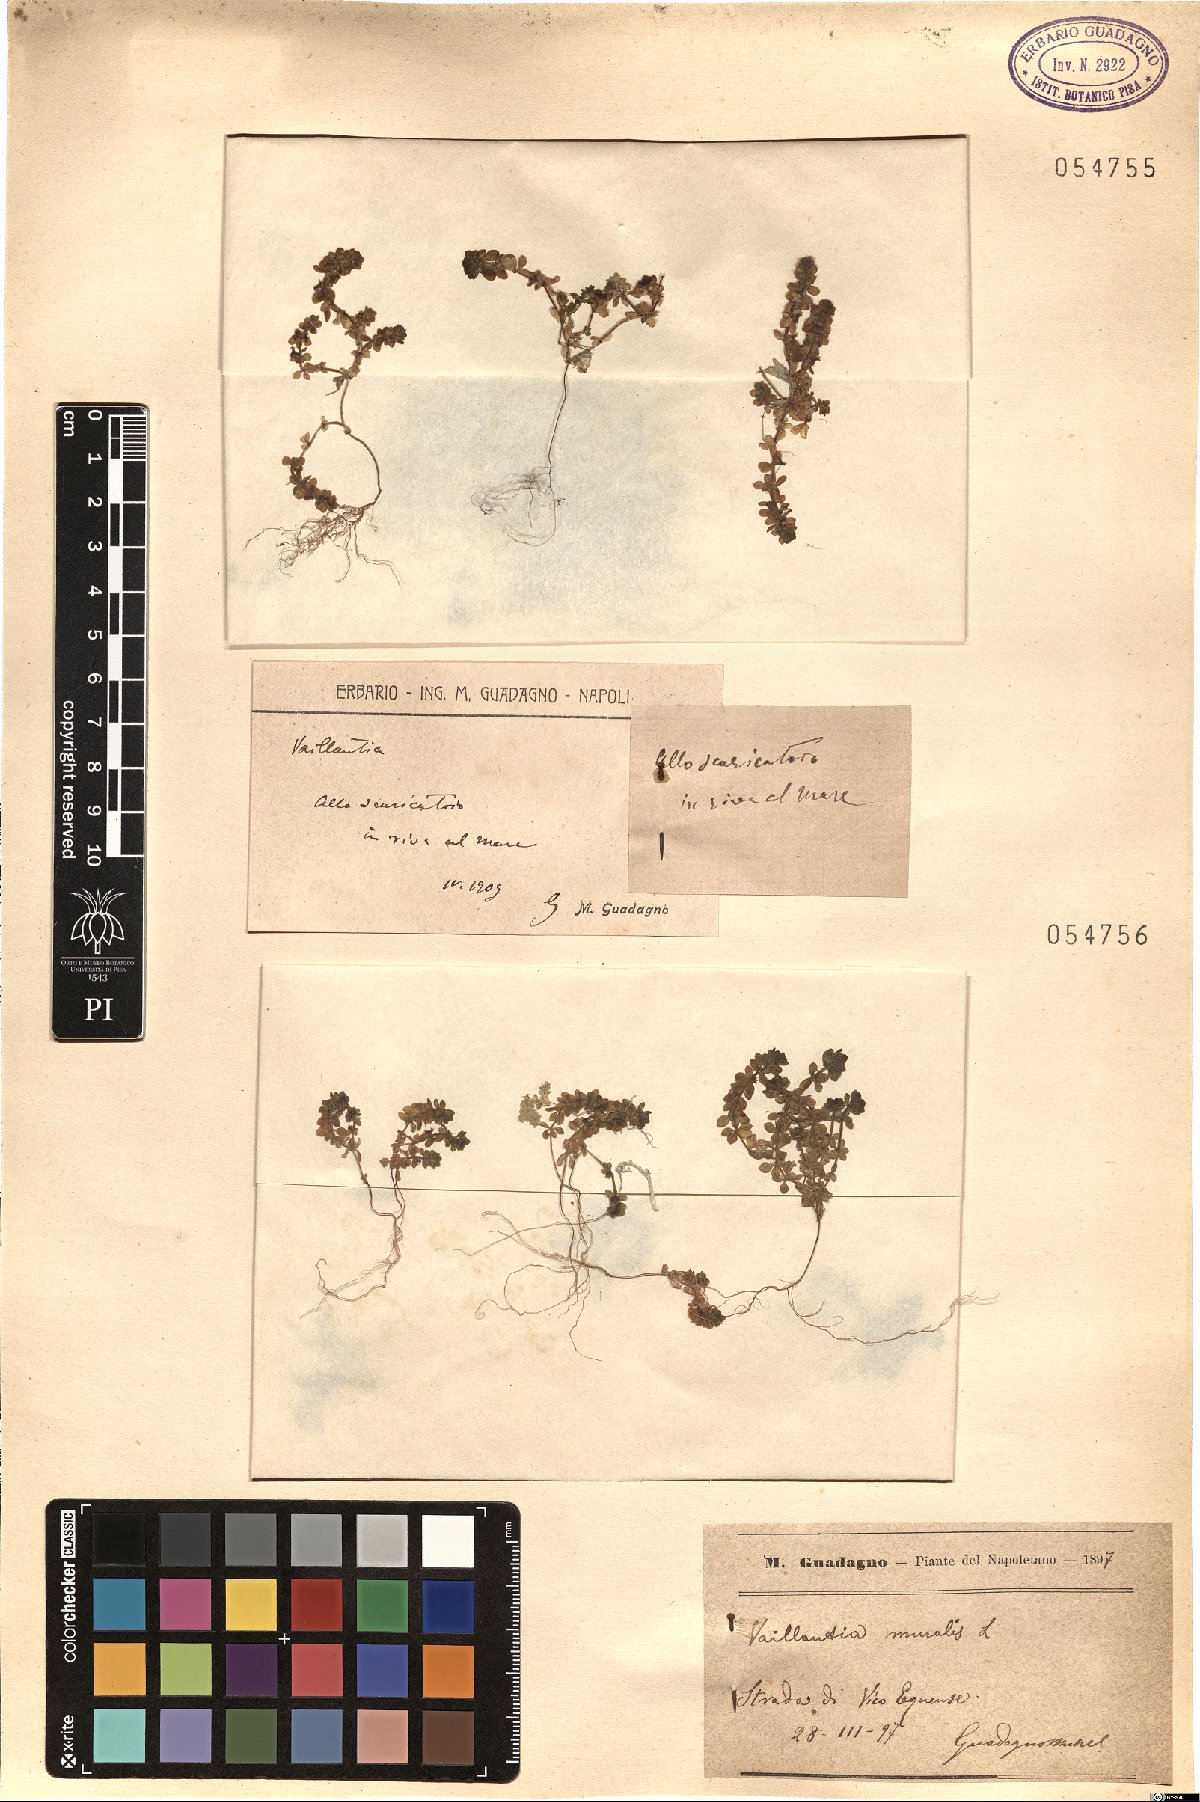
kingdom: Animalia
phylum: Arthropoda
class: Insecta
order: Diptera
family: Psychodidae
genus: Vaillantia
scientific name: Vaillantia
